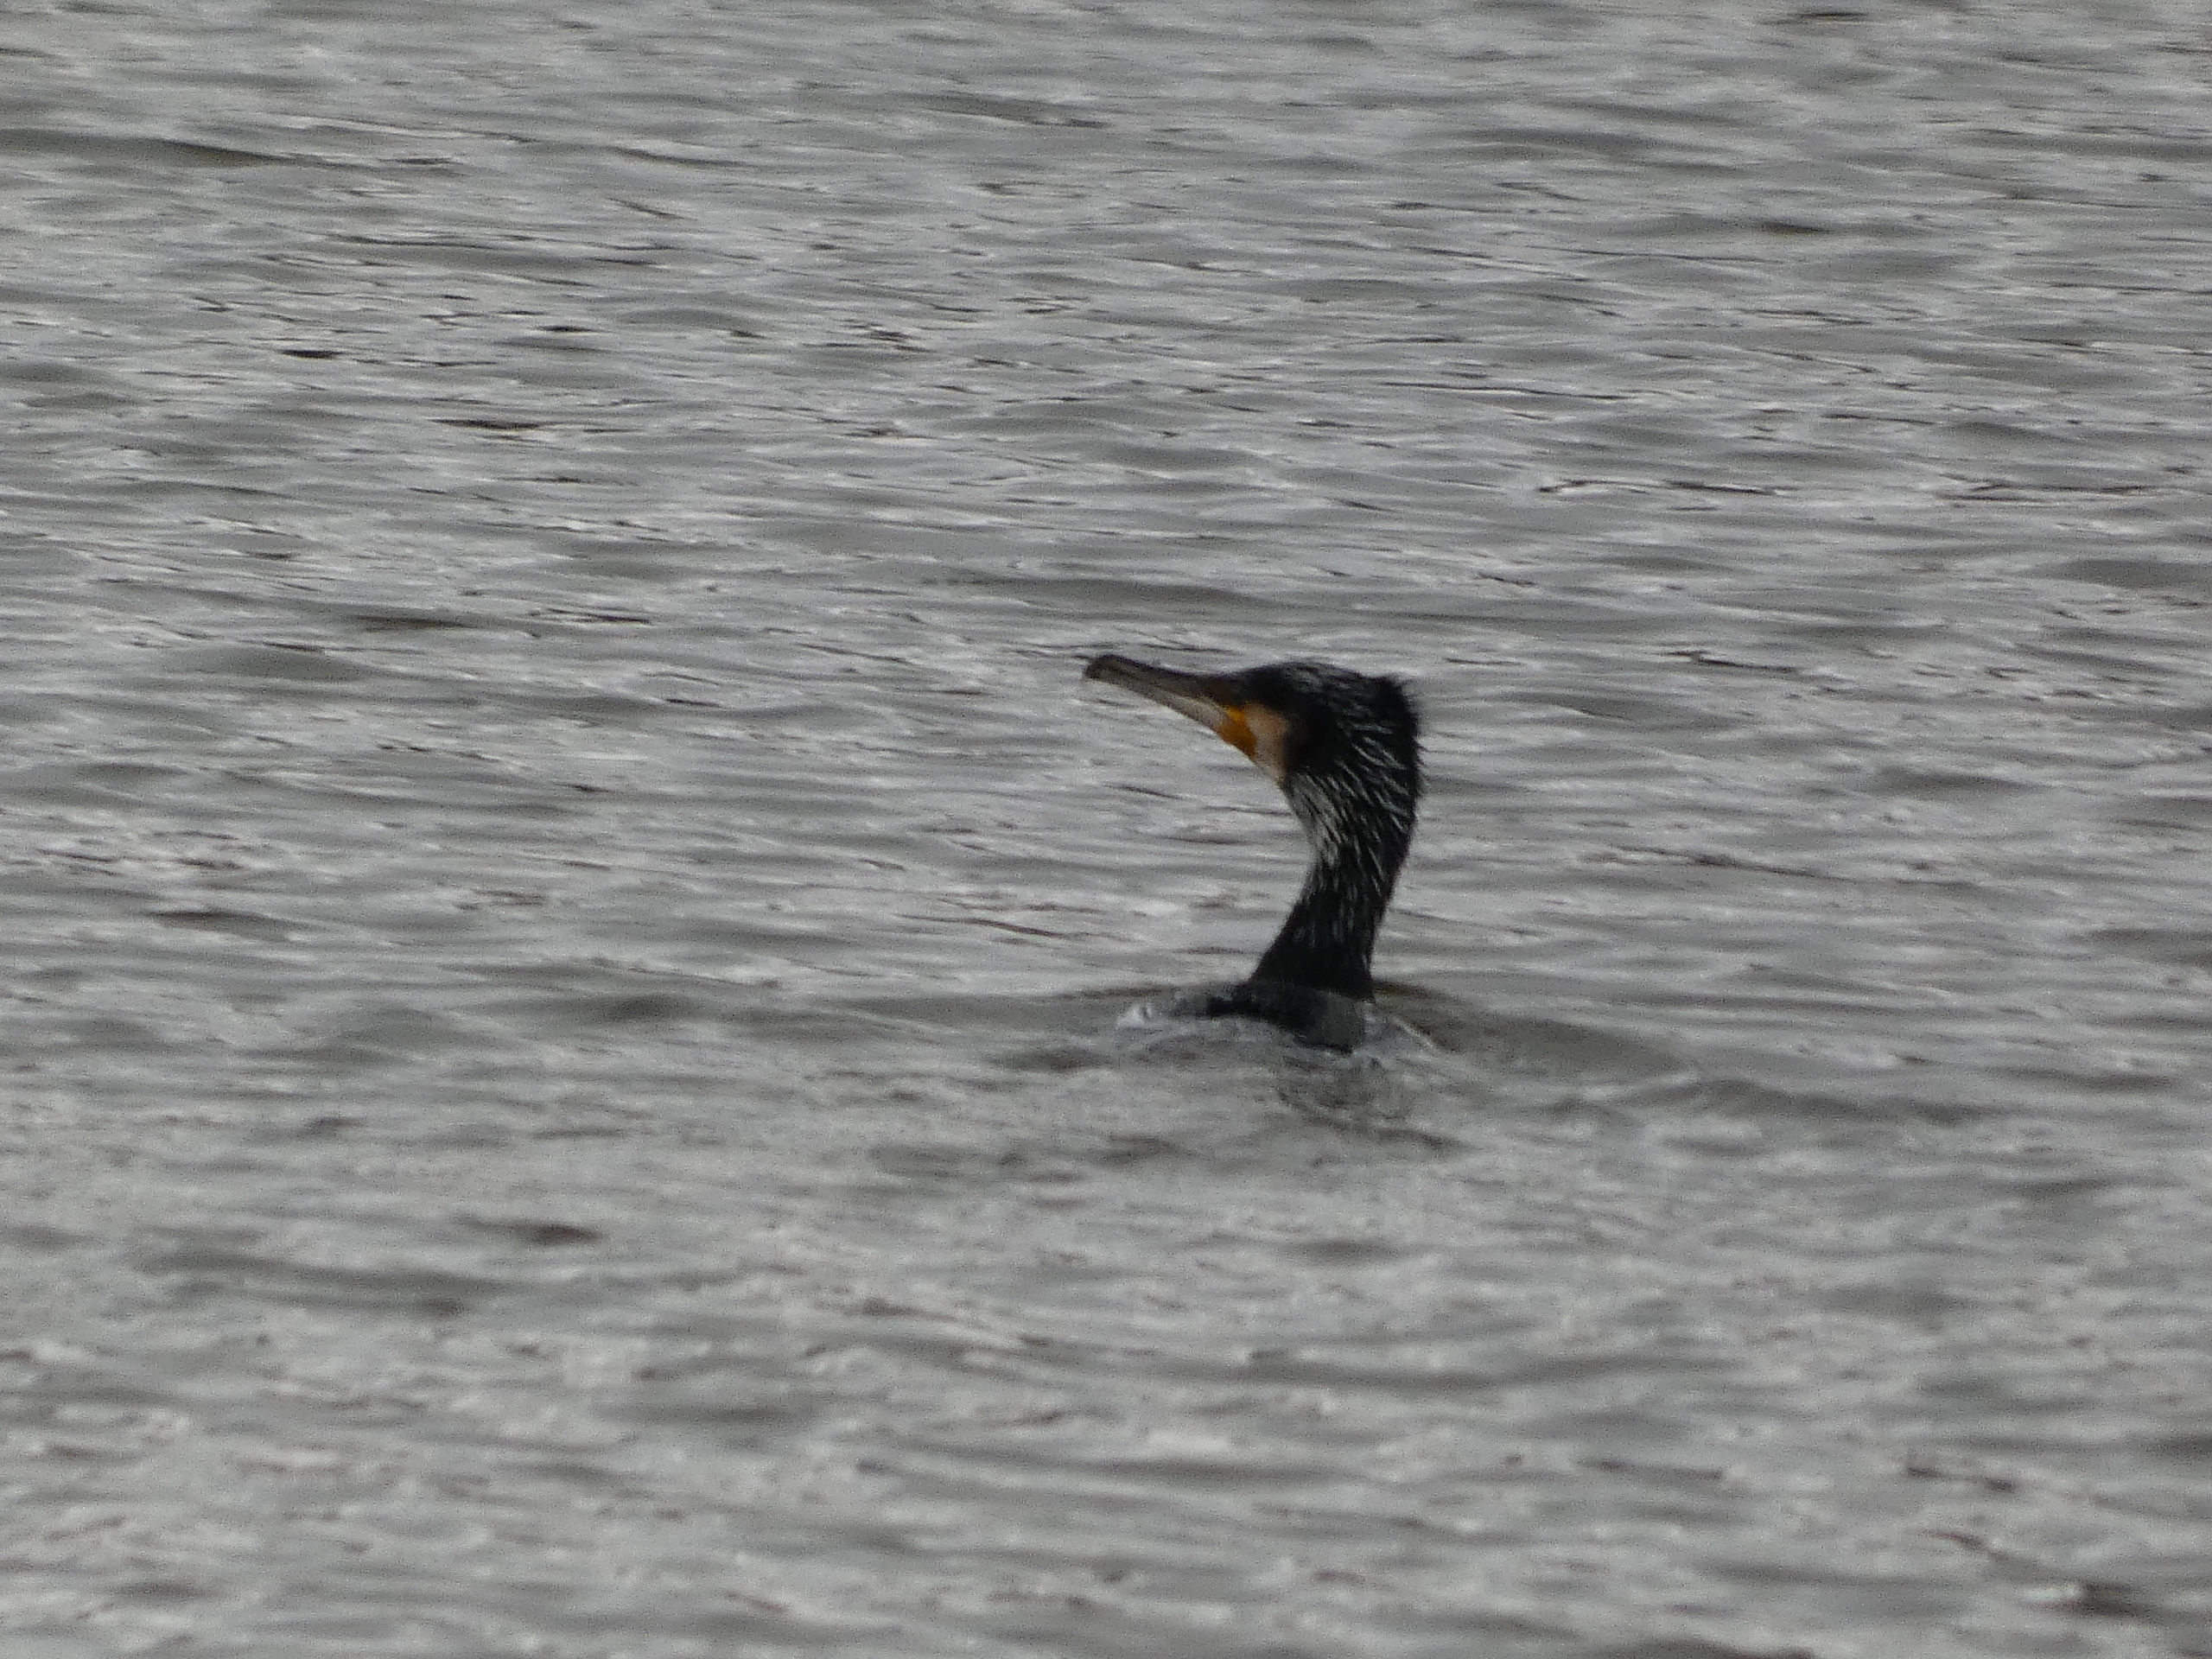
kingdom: Animalia
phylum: Chordata
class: Aves
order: Suliformes
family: Phalacrocoracidae
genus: Phalacrocorax
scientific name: Phalacrocorax carbo
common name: Mellemskarv
